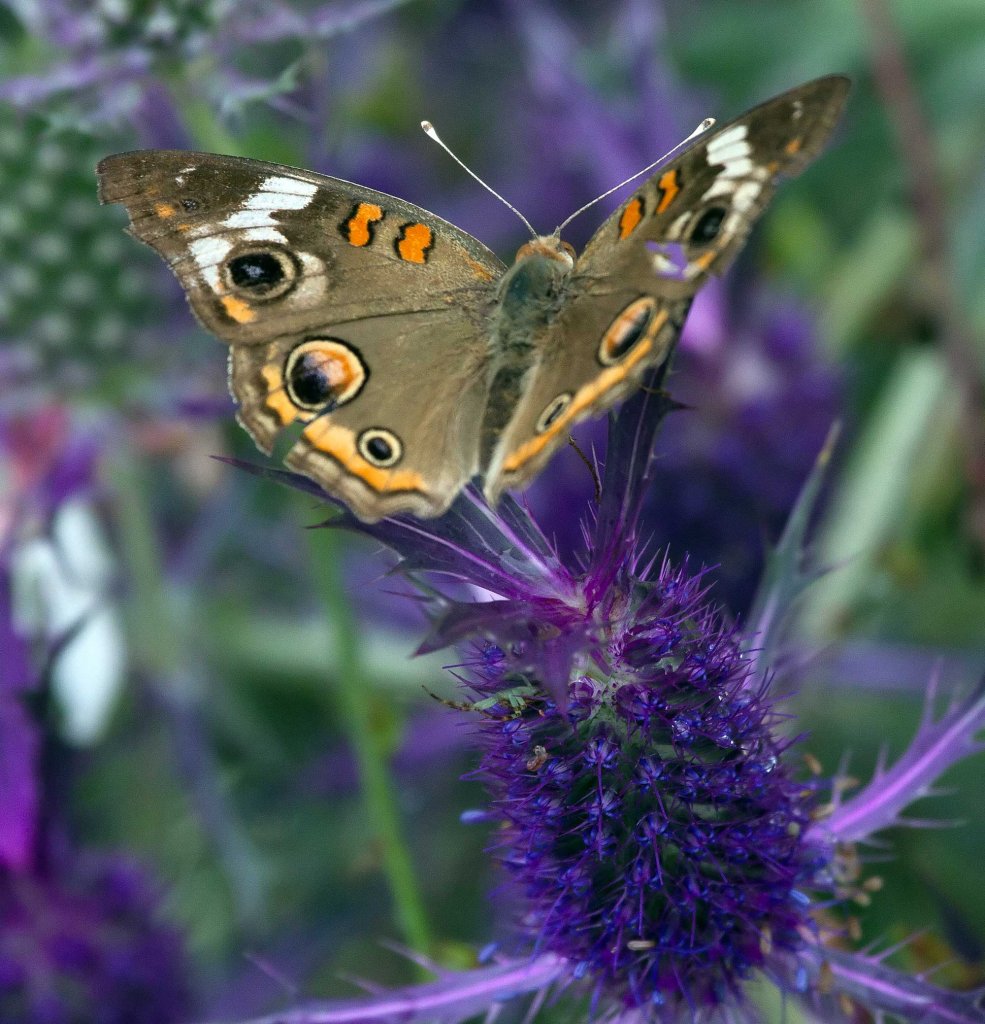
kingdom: Animalia
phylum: Arthropoda
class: Insecta
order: Lepidoptera
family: Nymphalidae
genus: Junonia
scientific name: Junonia coenia
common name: Common Buckeye
